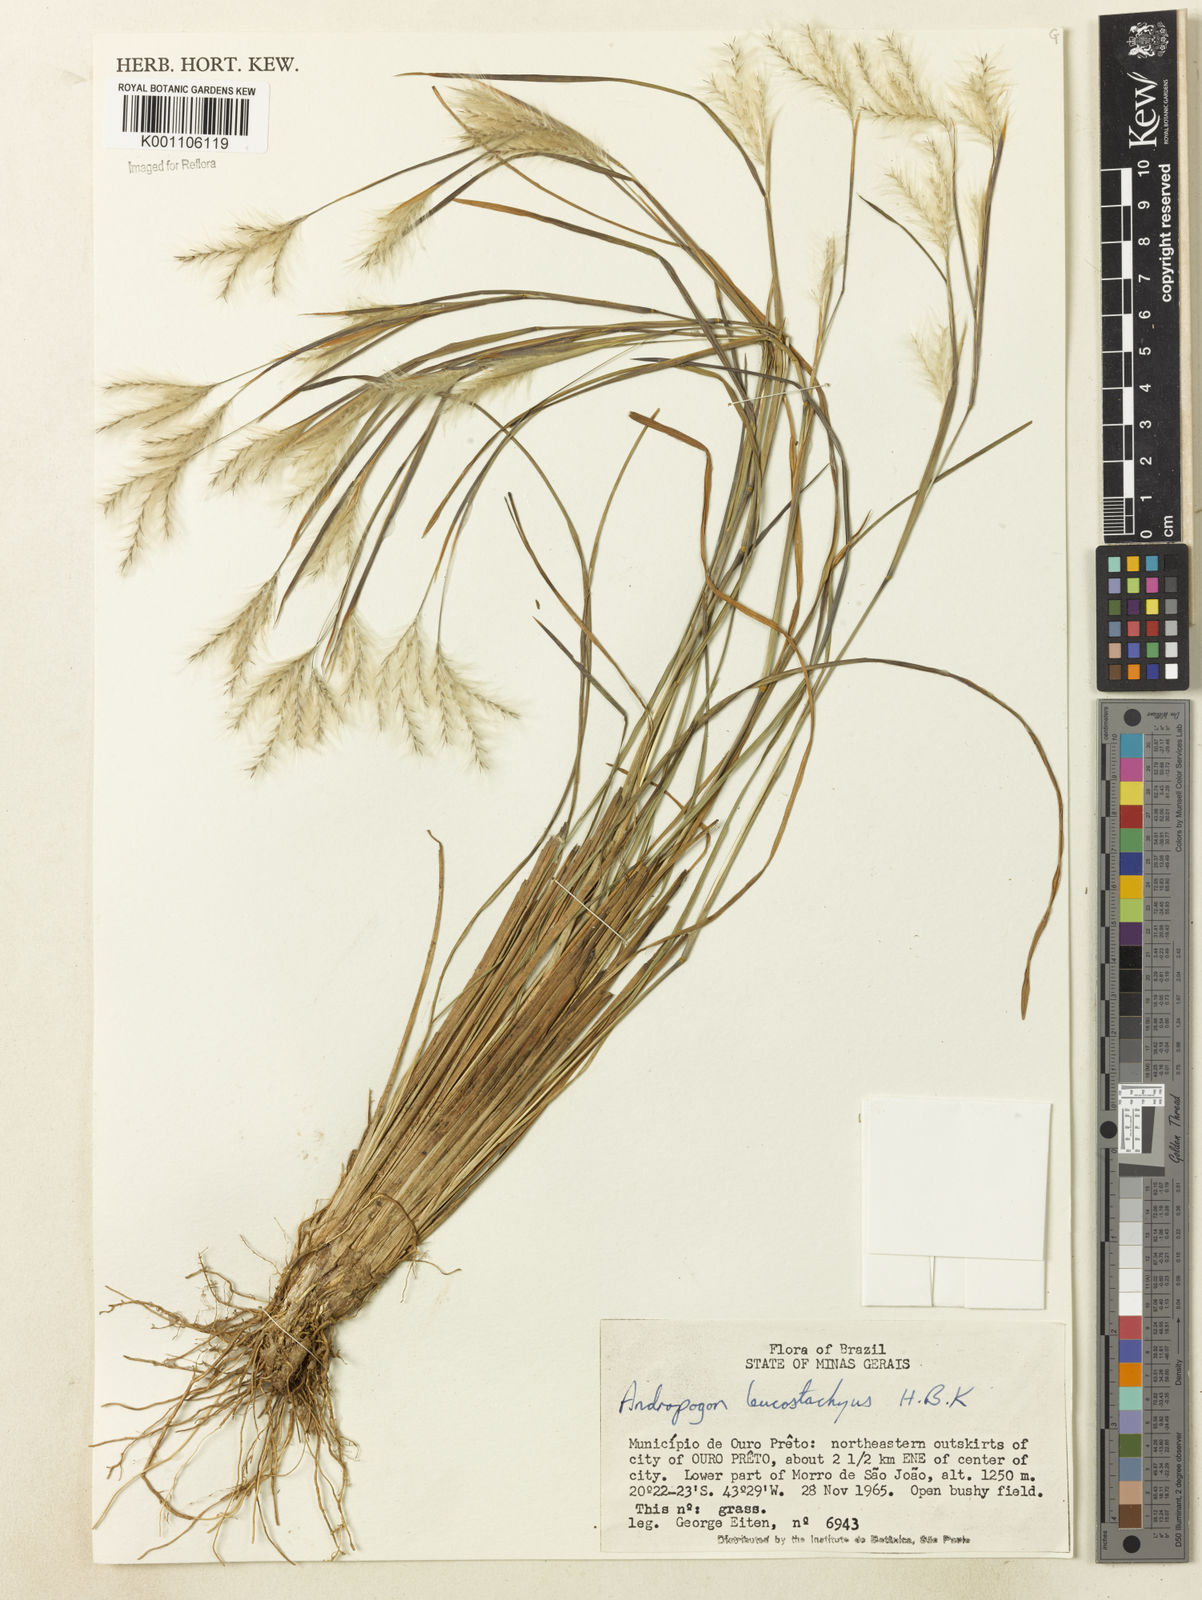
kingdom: Plantae
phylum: Tracheophyta
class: Liliopsida
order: Poales
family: Poaceae
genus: Andropogon
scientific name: Andropogon leucostachyus
